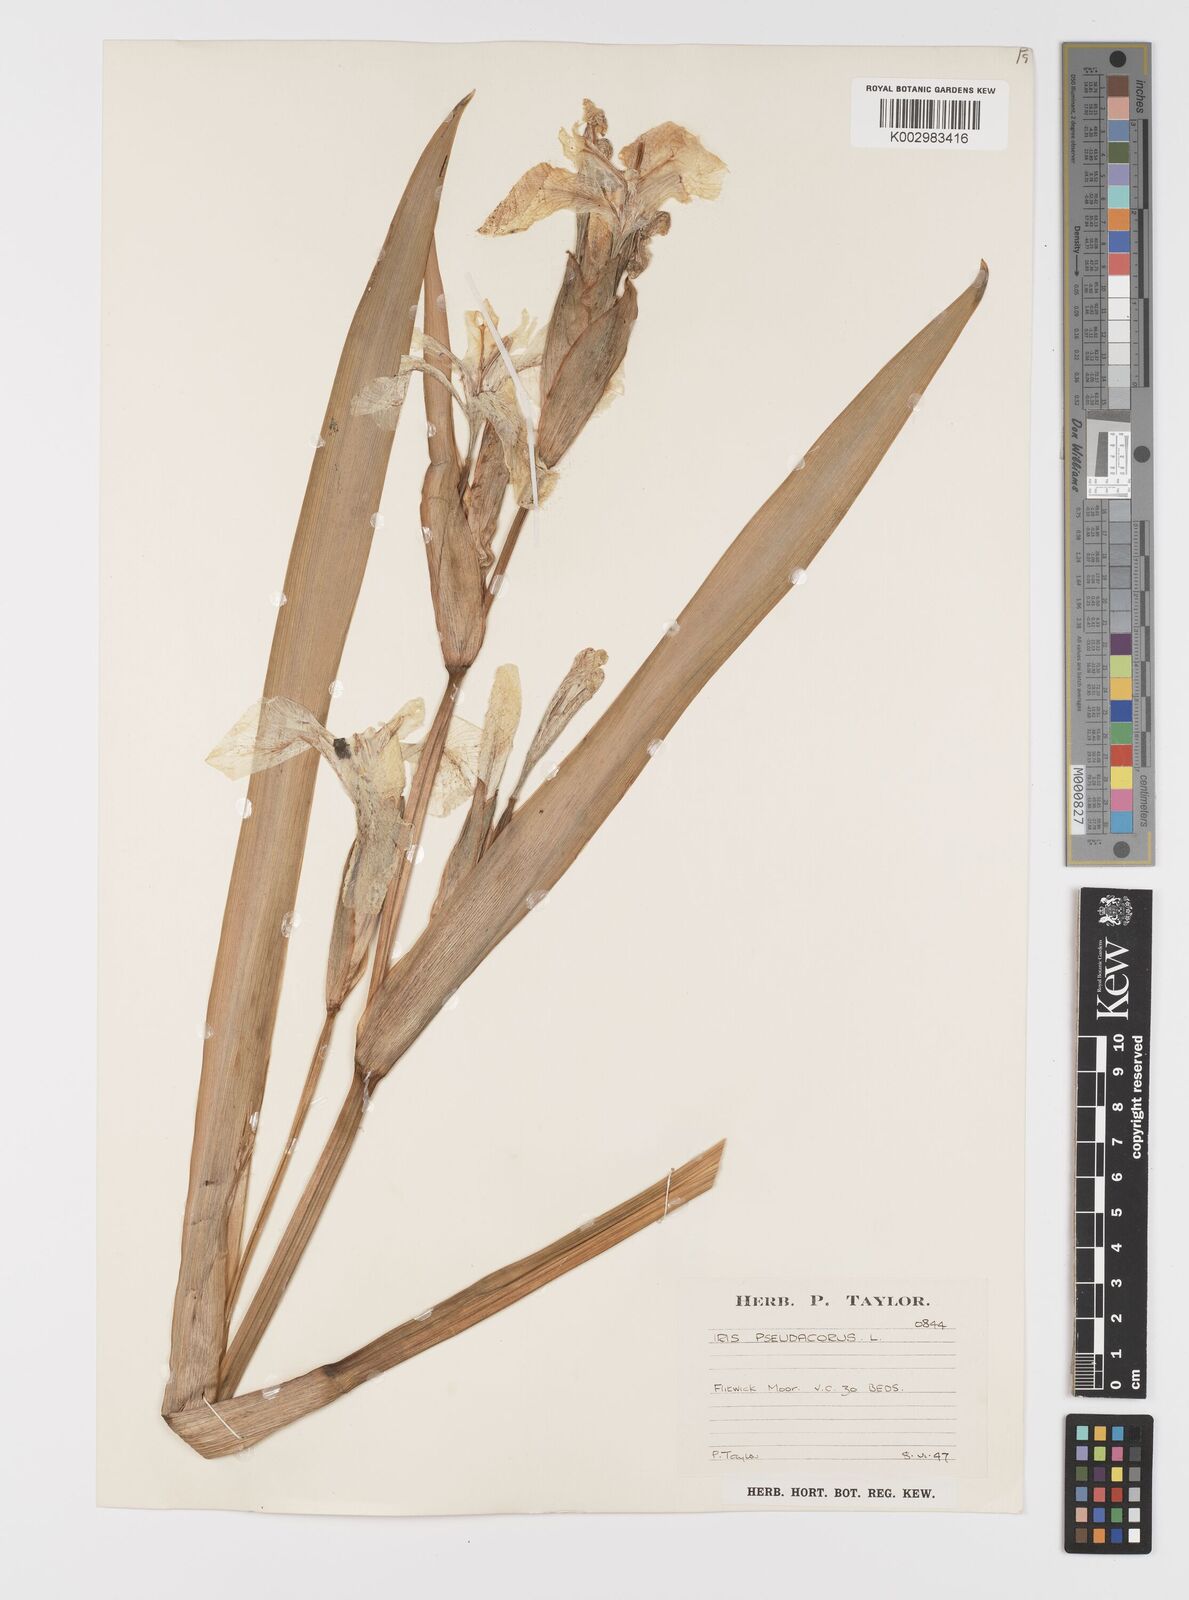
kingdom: Plantae
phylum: Tracheophyta
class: Liliopsida
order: Asparagales
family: Iridaceae
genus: Iris
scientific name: Iris pseudacorus
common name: Yellow flag
